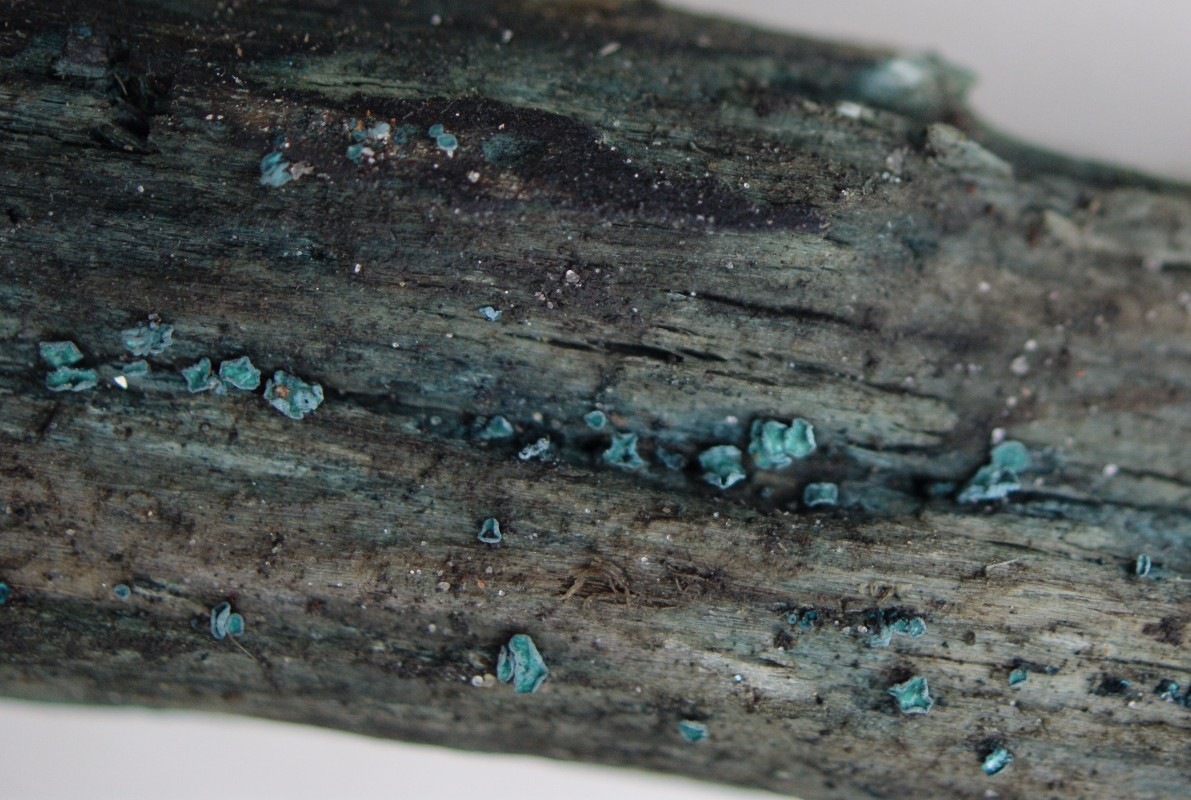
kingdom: Fungi
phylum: Ascomycota
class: Leotiomycetes
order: Helotiales
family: Chlorociboriaceae
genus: Chlorociboria
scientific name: Chlorociboria aeruginascens
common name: almindelig grønskive
